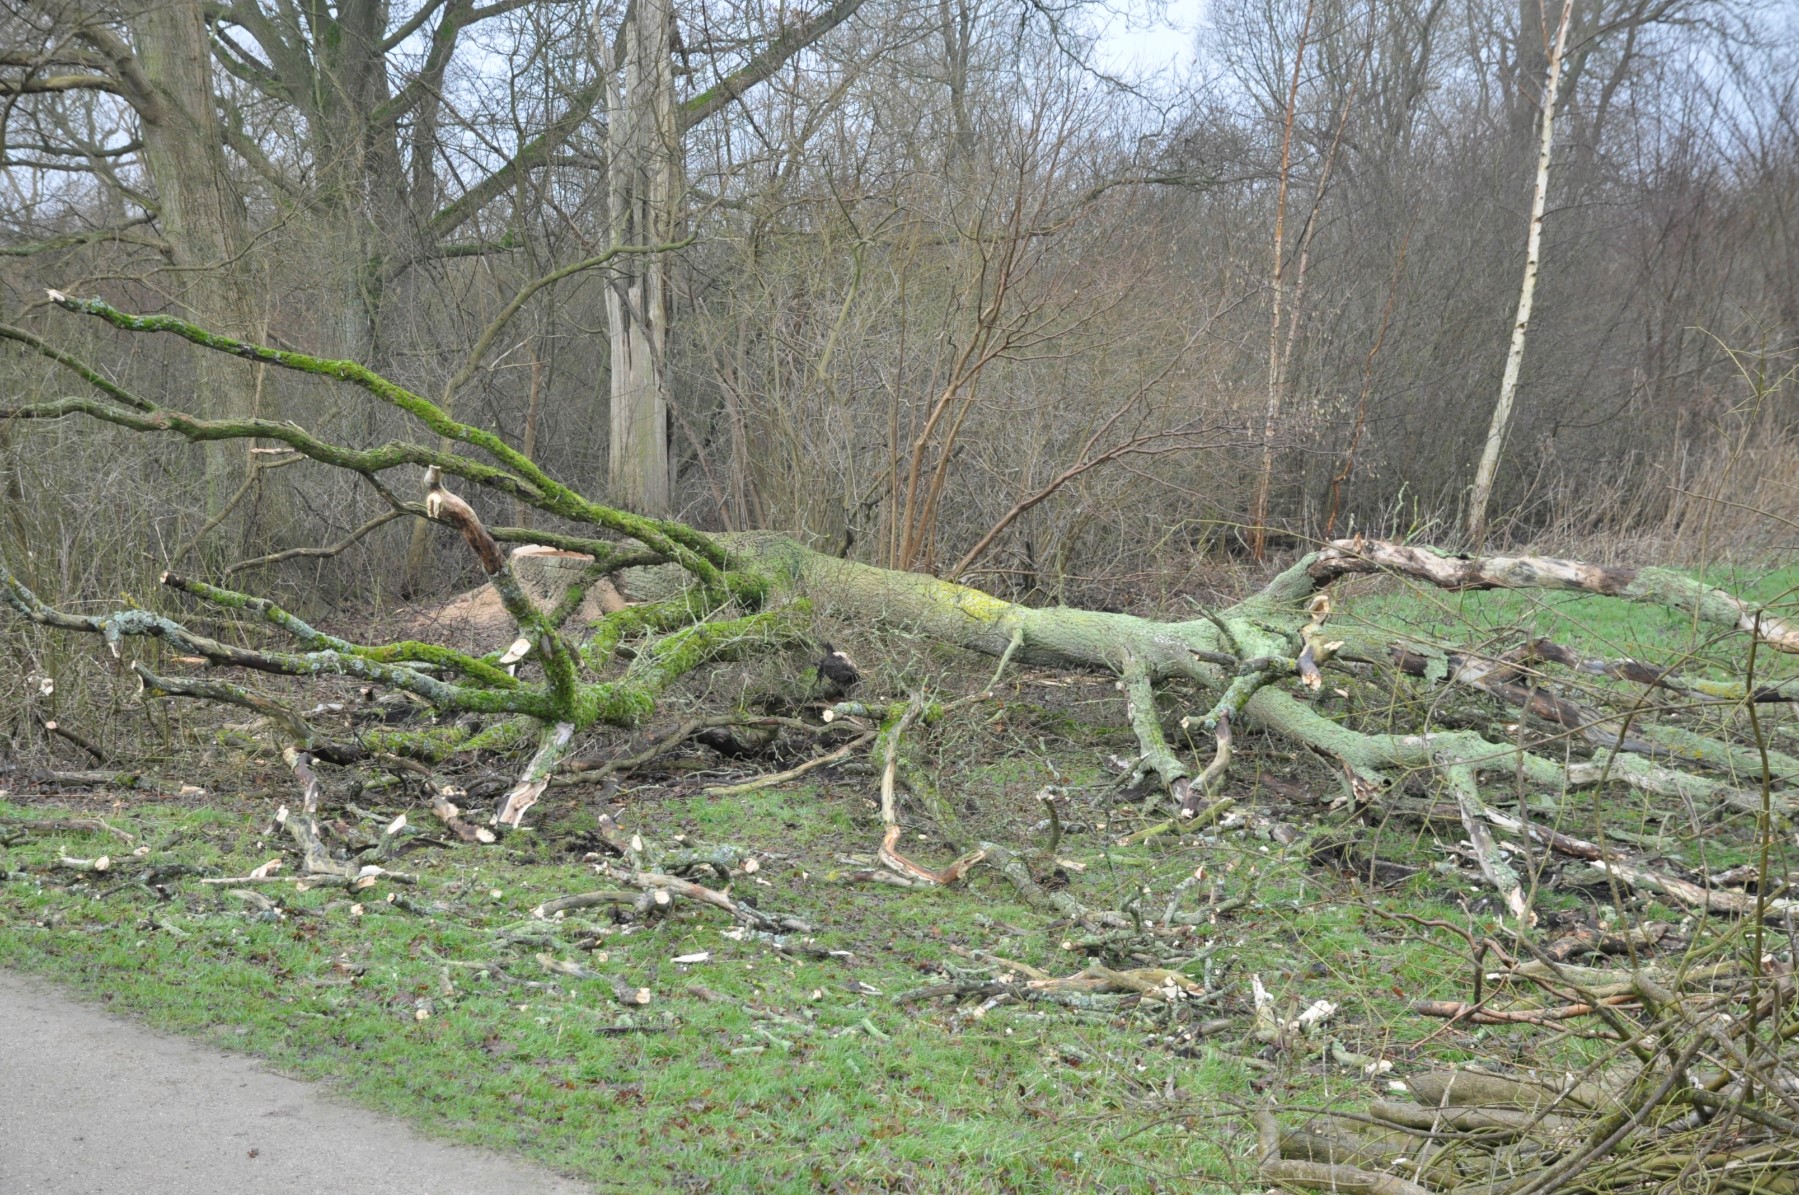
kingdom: Fungi
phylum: Basidiomycota
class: Agaricomycetes
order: Auriculariales
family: Auriculariaceae
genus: Exidia
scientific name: Exidia glandulosa
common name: ege-bævretop
